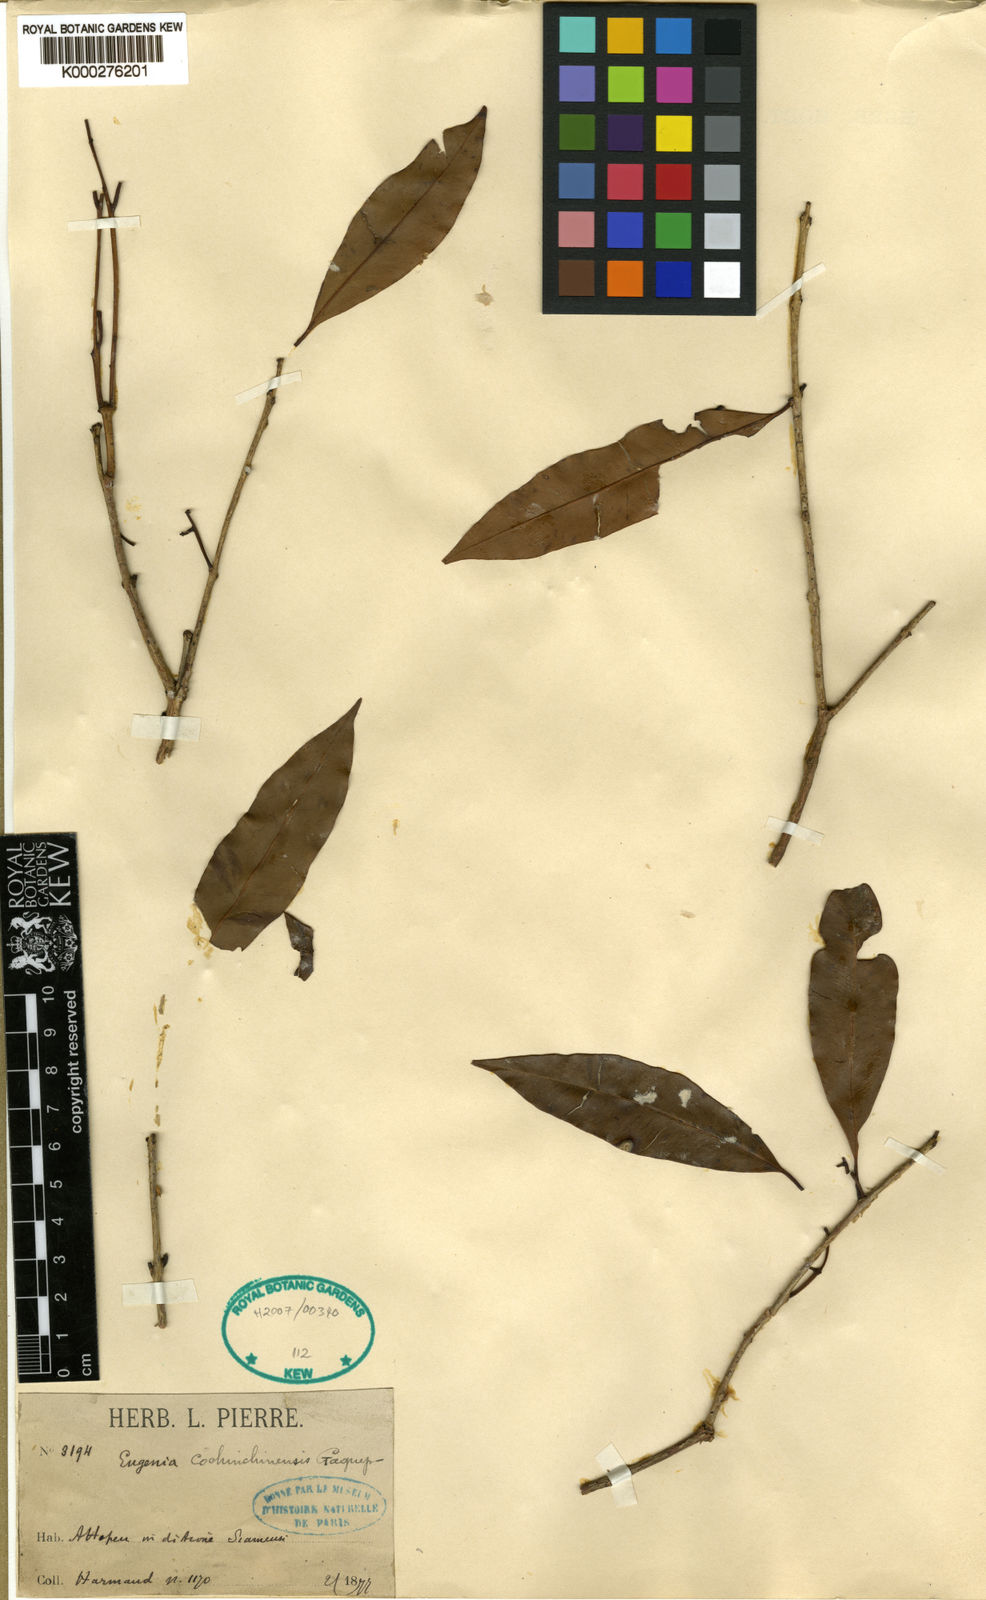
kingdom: Plantae
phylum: Tracheophyta
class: Magnoliopsida
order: Myrtales
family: Myrtaceae
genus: Syzygium
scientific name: Syzygium ripicola
